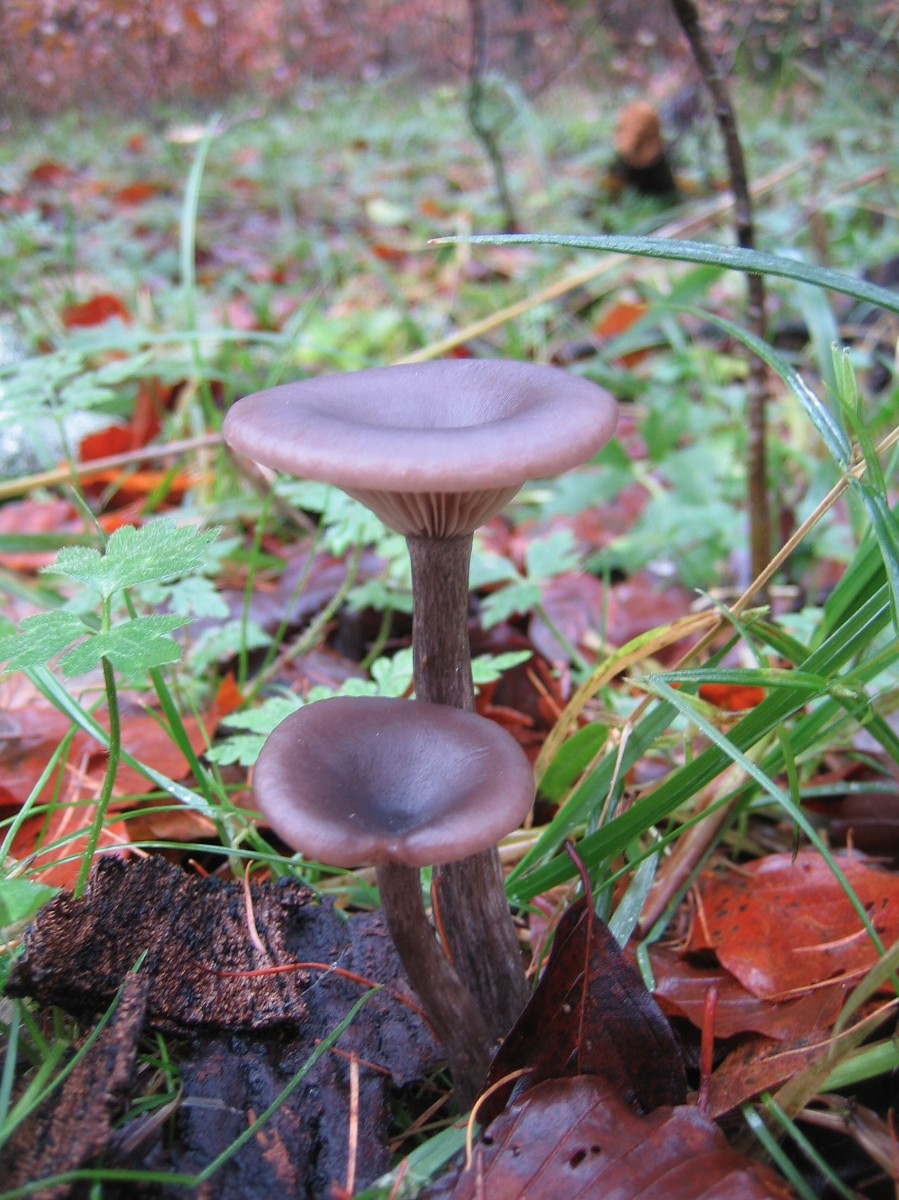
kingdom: Fungi
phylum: Basidiomycota
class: Agaricomycetes
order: Agaricales
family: Pseudoclitocybaceae
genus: Pseudoclitocybe
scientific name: Pseudoclitocybe cyathiformis
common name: almindelig bægertragthat
